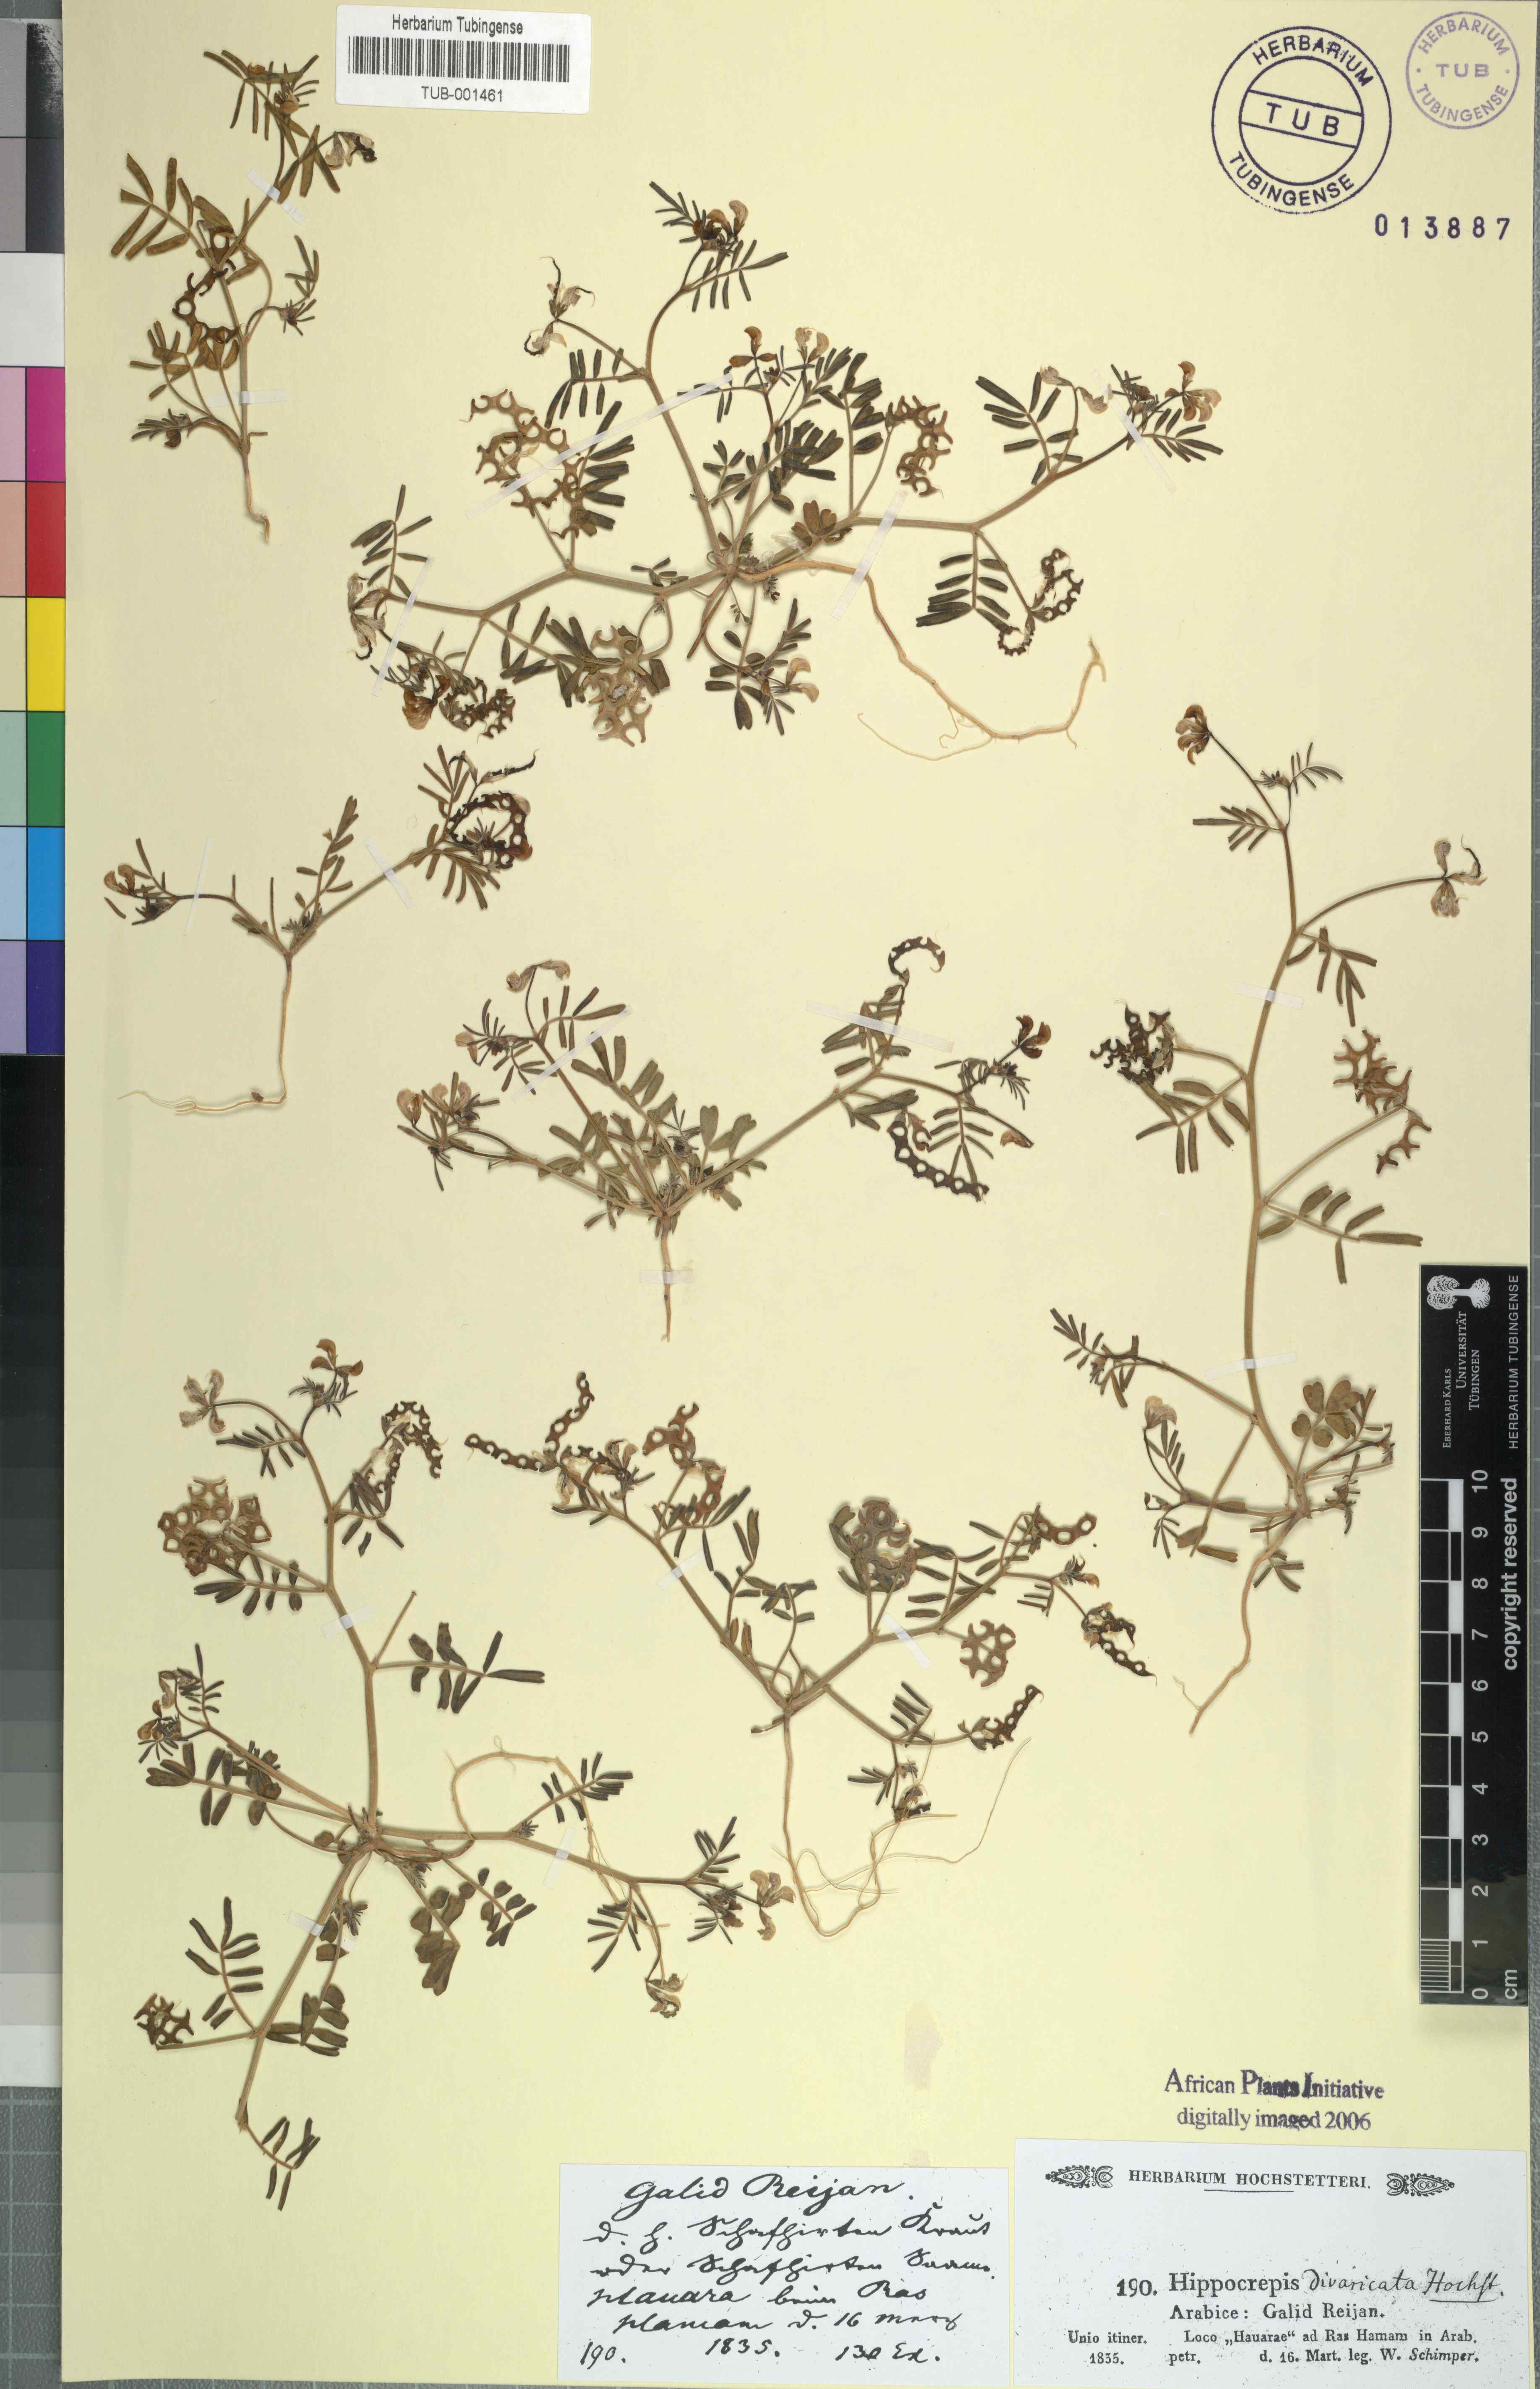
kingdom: Plantae
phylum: Tracheophyta
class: Magnoliopsida
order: Fabales
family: Fabaceae
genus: Hippocrepis
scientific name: Hippocrepis areolata
